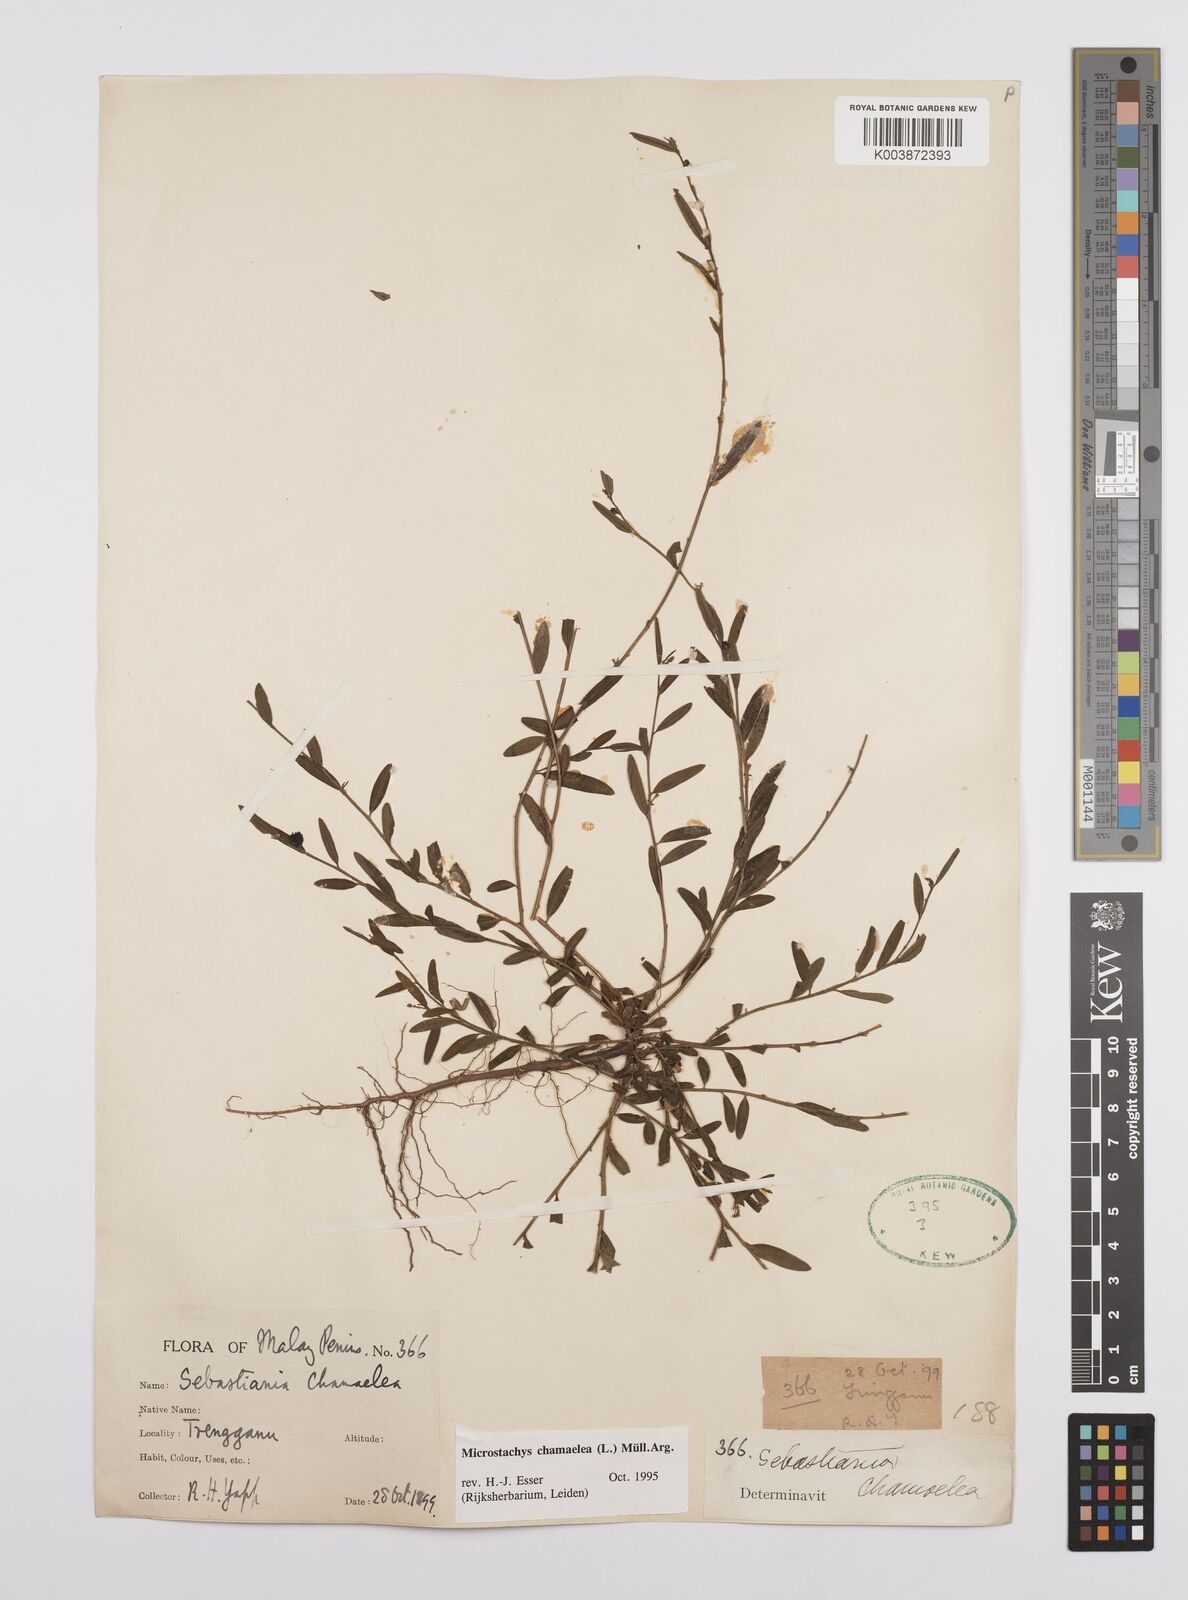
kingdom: Plantae
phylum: Tracheophyta
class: Magnoliopsida
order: Malpighiales
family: Euphorbiaceae
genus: Microstachys
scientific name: Microstachys chamaelea
